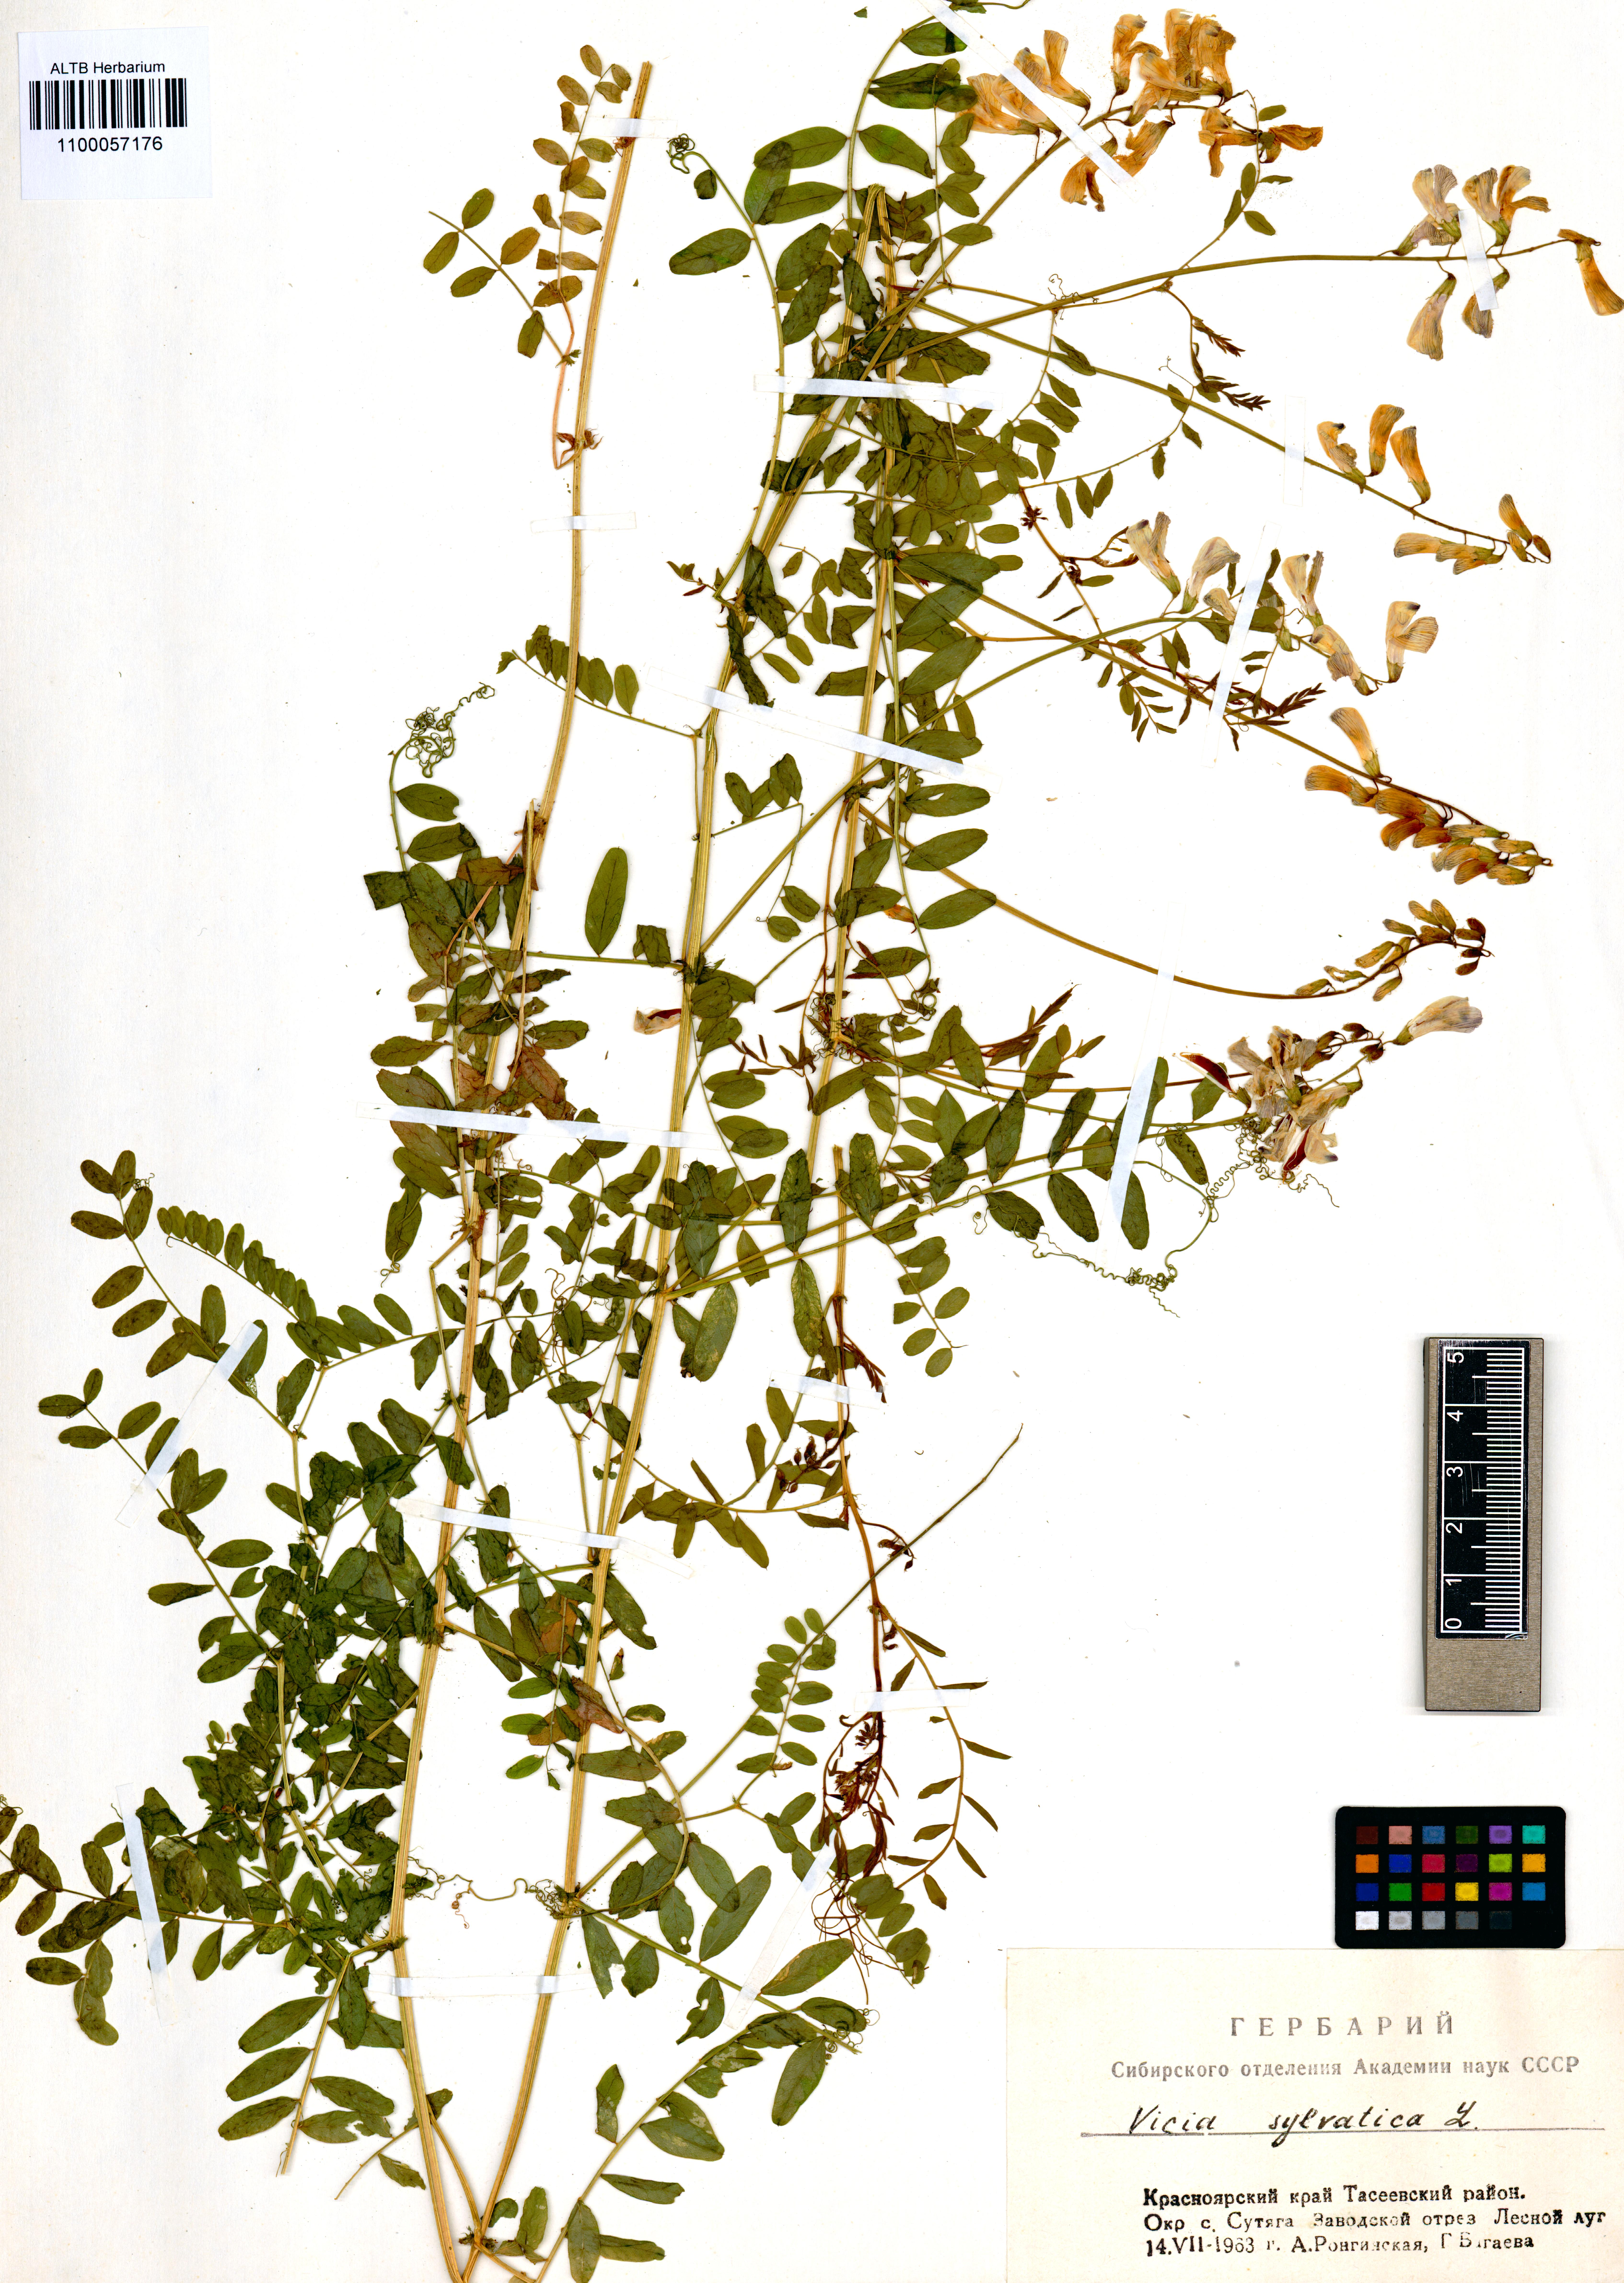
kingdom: Plantae
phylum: Tracheophyta
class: Magnoliopsida
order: Fabales
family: Fabaceae
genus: Vicia
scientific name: Vicia sylvatica
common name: Wood vetch
